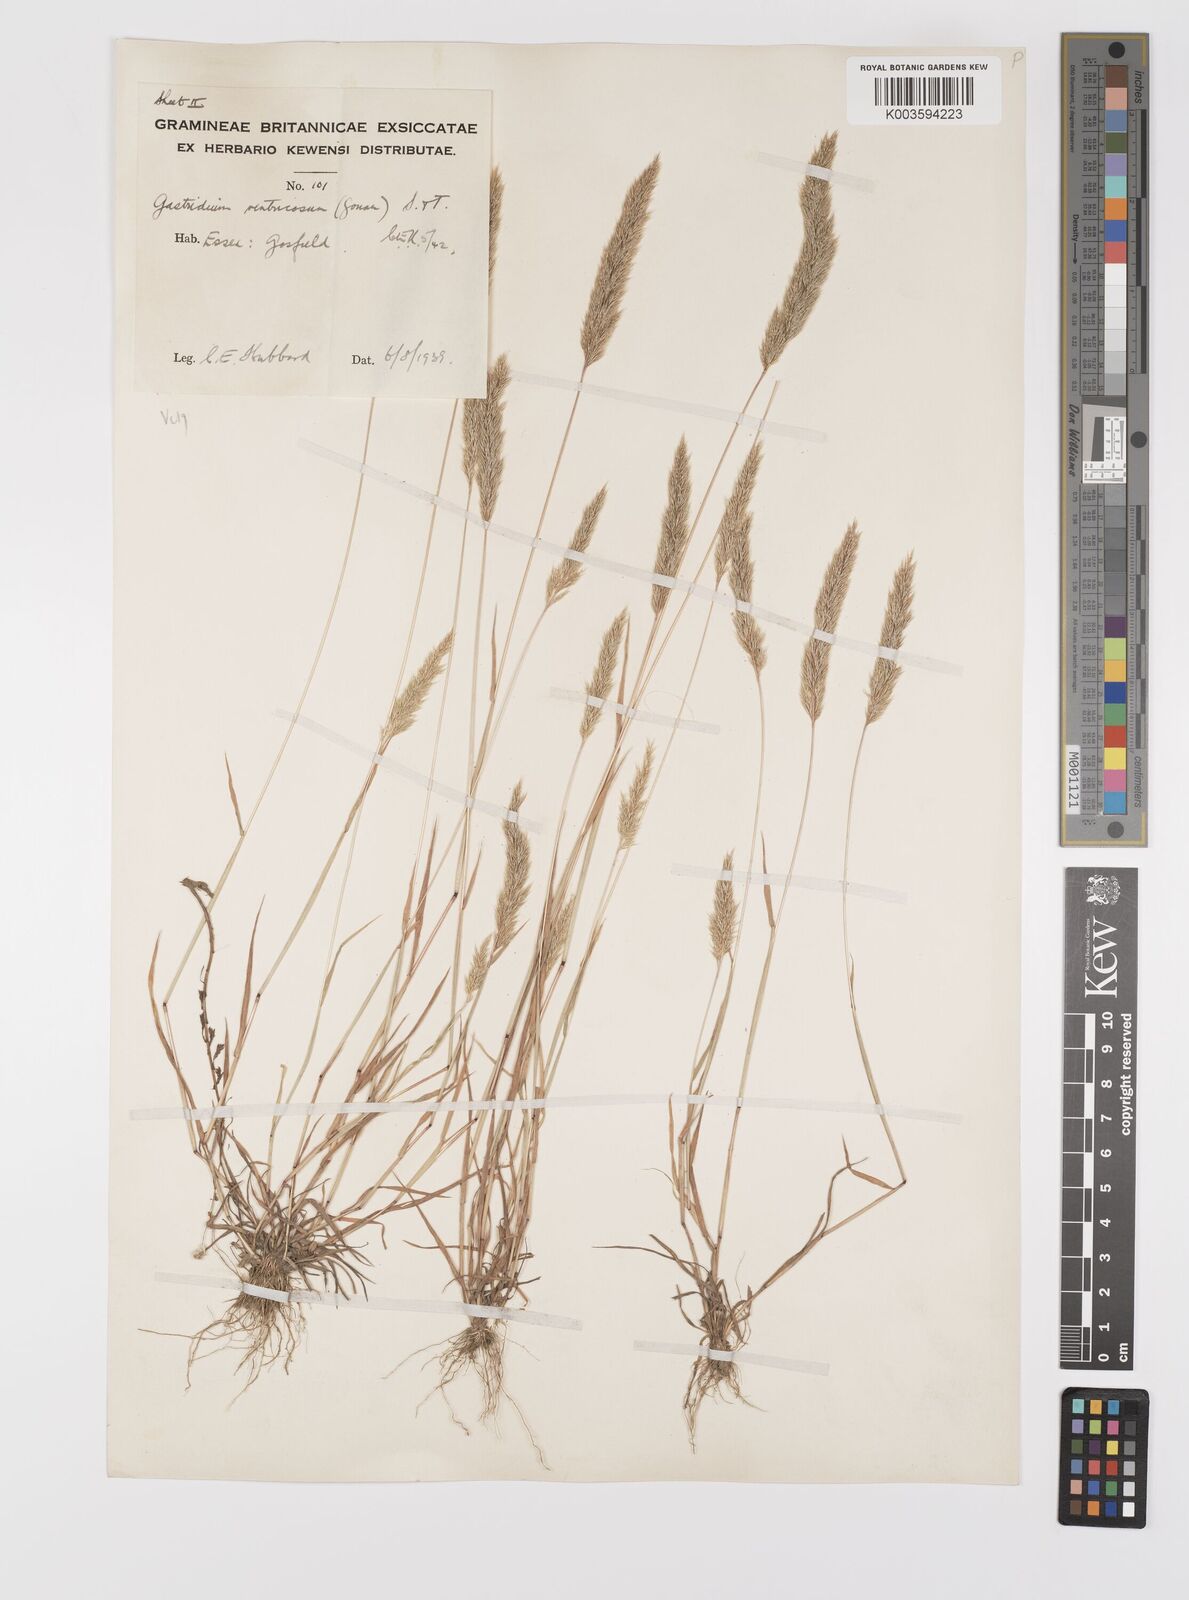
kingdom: Plantae
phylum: Tracheophyta
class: Liliopsida
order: Poales
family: Poaceae
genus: Gastridium
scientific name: Gastridium ventricosum
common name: Nit-grass
